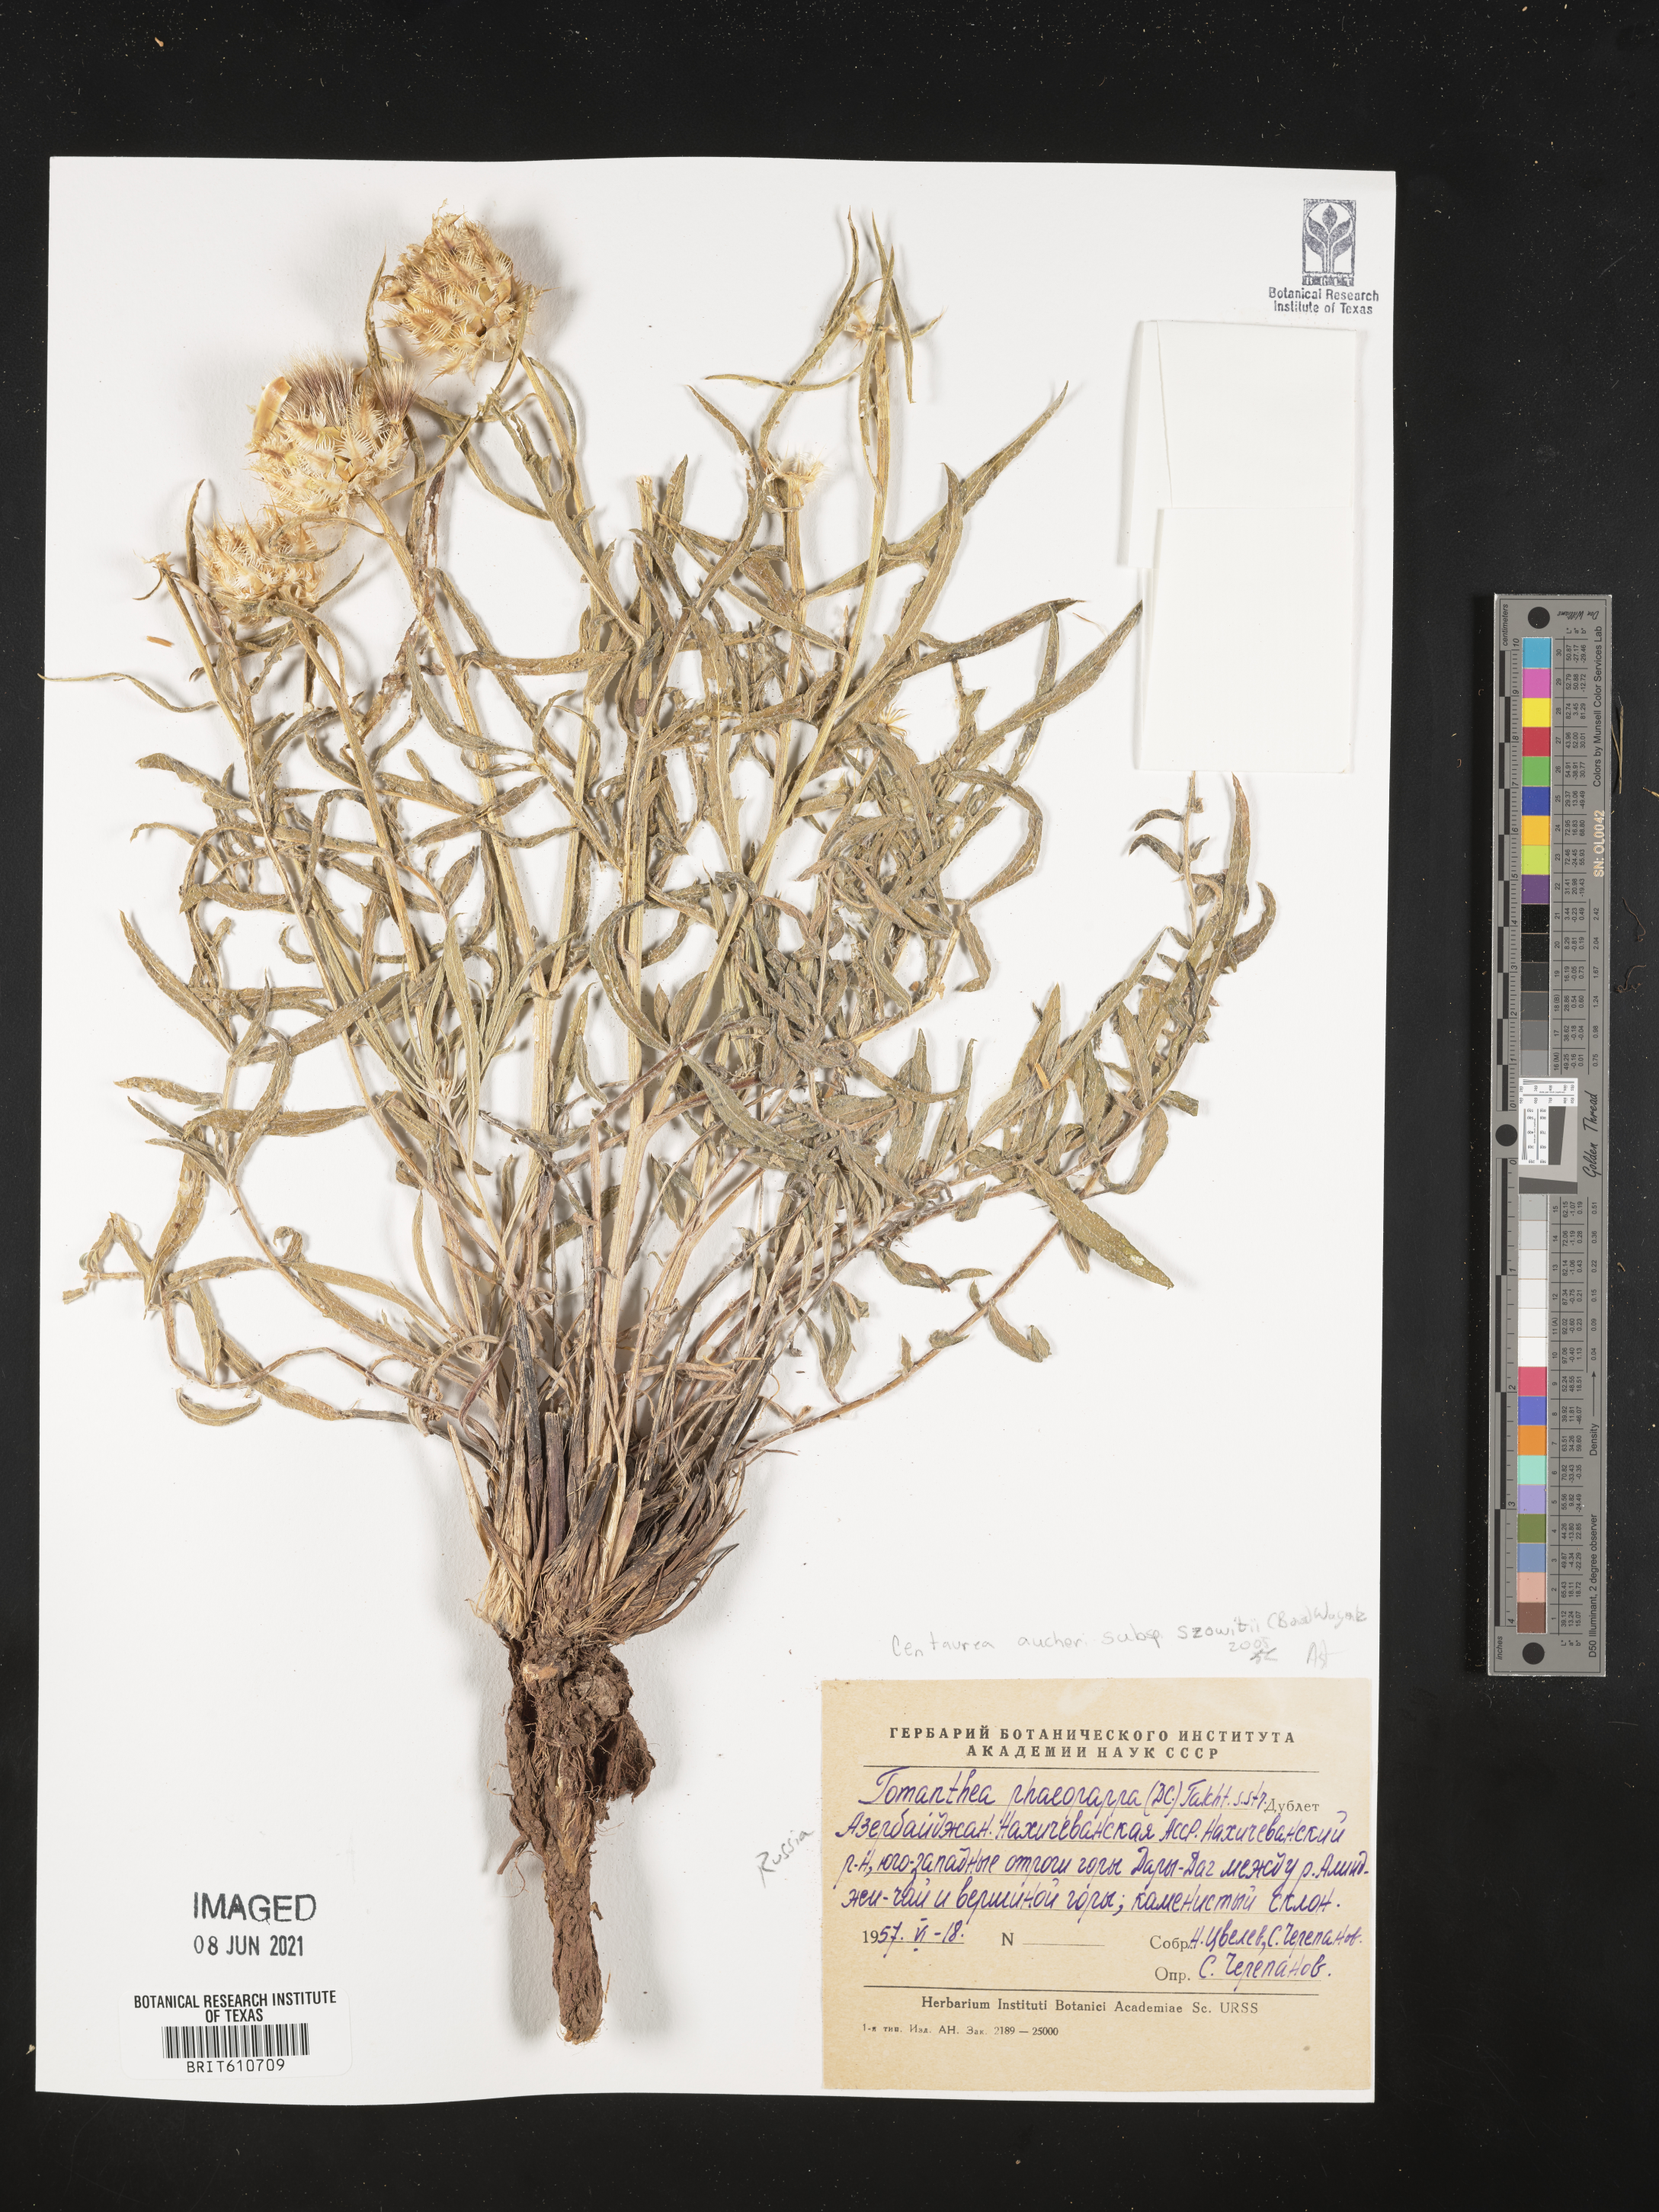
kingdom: Plantae
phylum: Tracheophyta
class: Magnoliopsida
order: Asterales
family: Asteraceae
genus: Centaurea
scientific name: Centaurea aucheri
